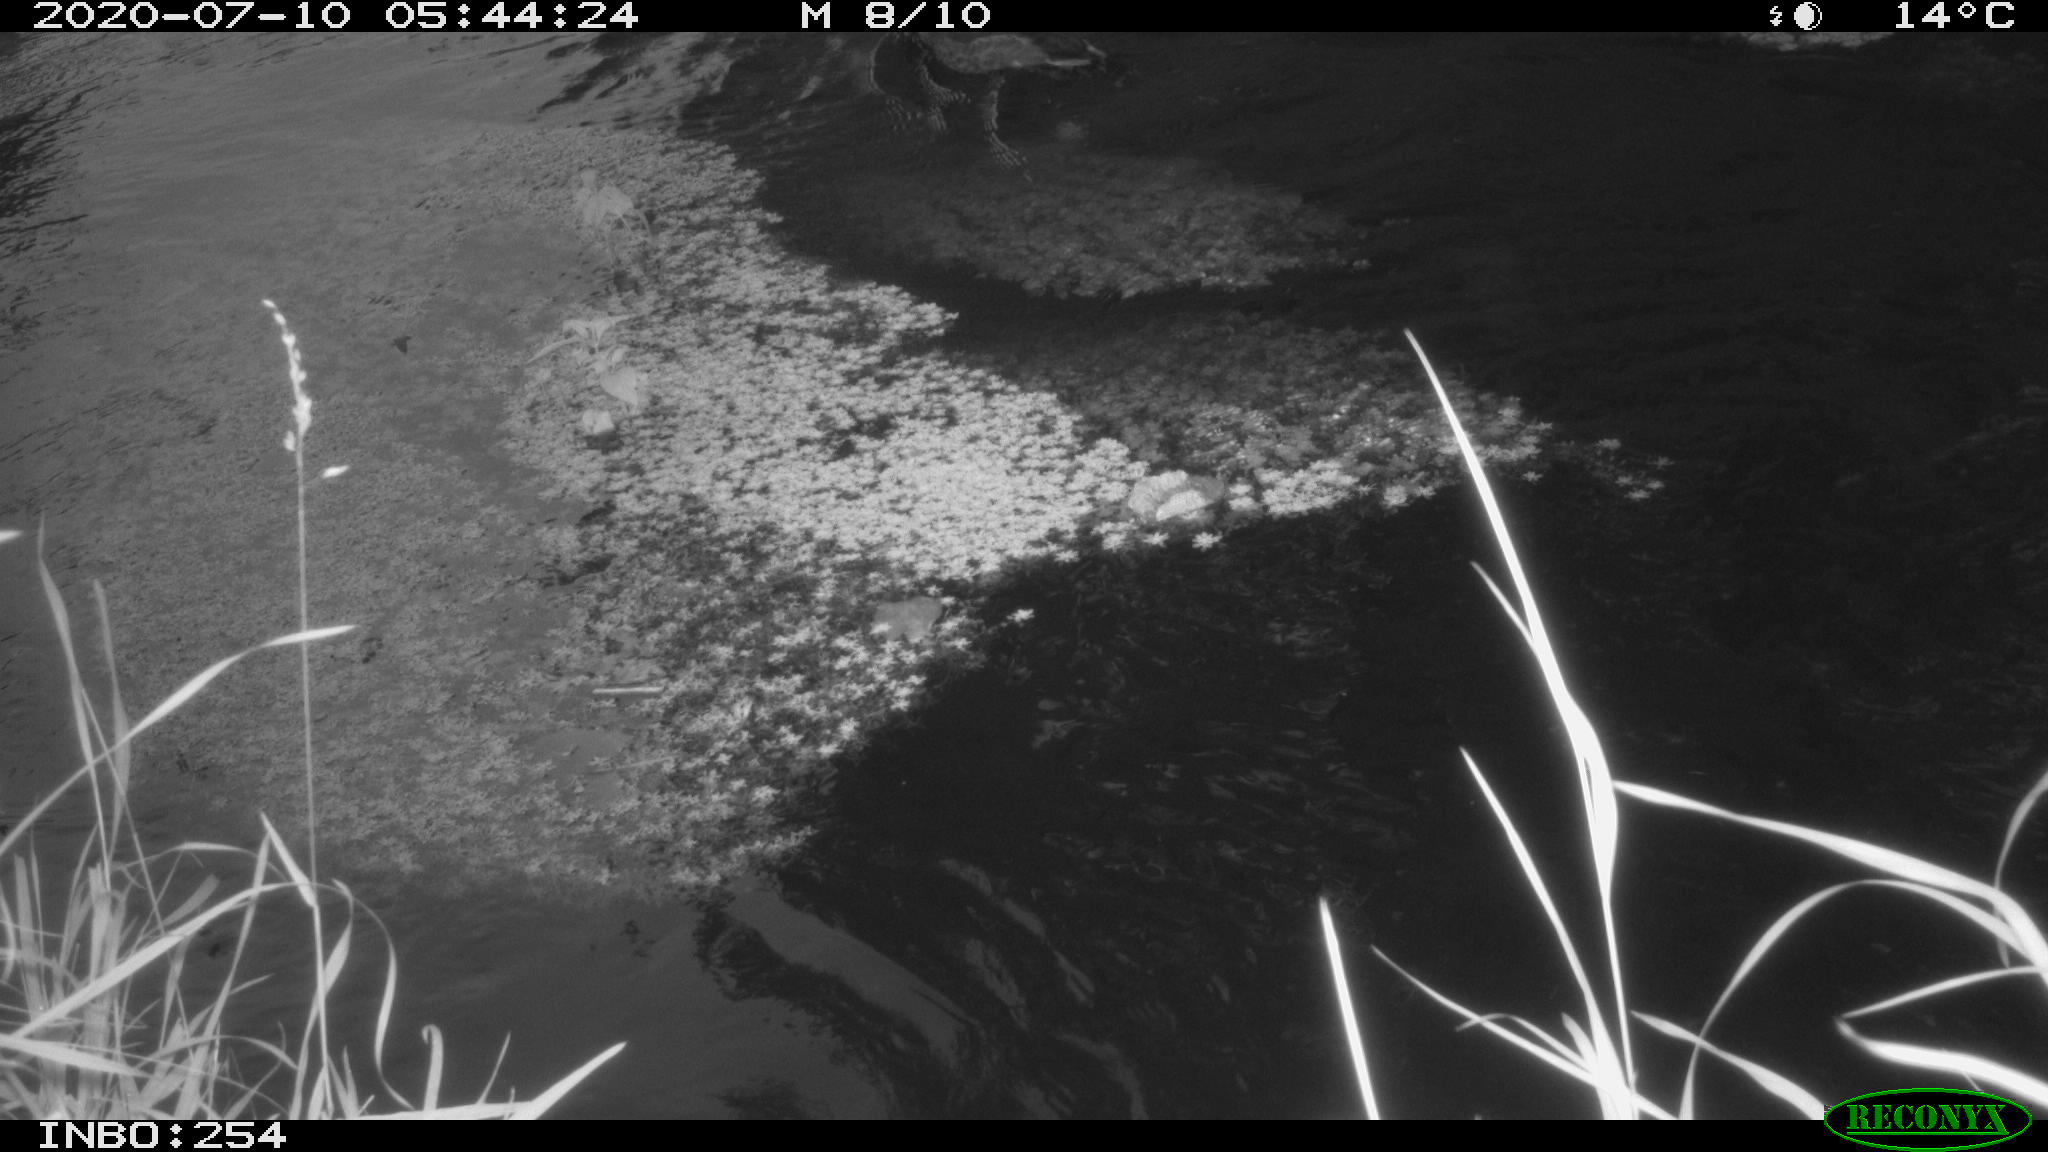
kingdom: Animalia
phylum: Chordata
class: Aves
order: Anseriformes
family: Anatidae
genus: Anas
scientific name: Anas platyrhynchos
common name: Mallard
